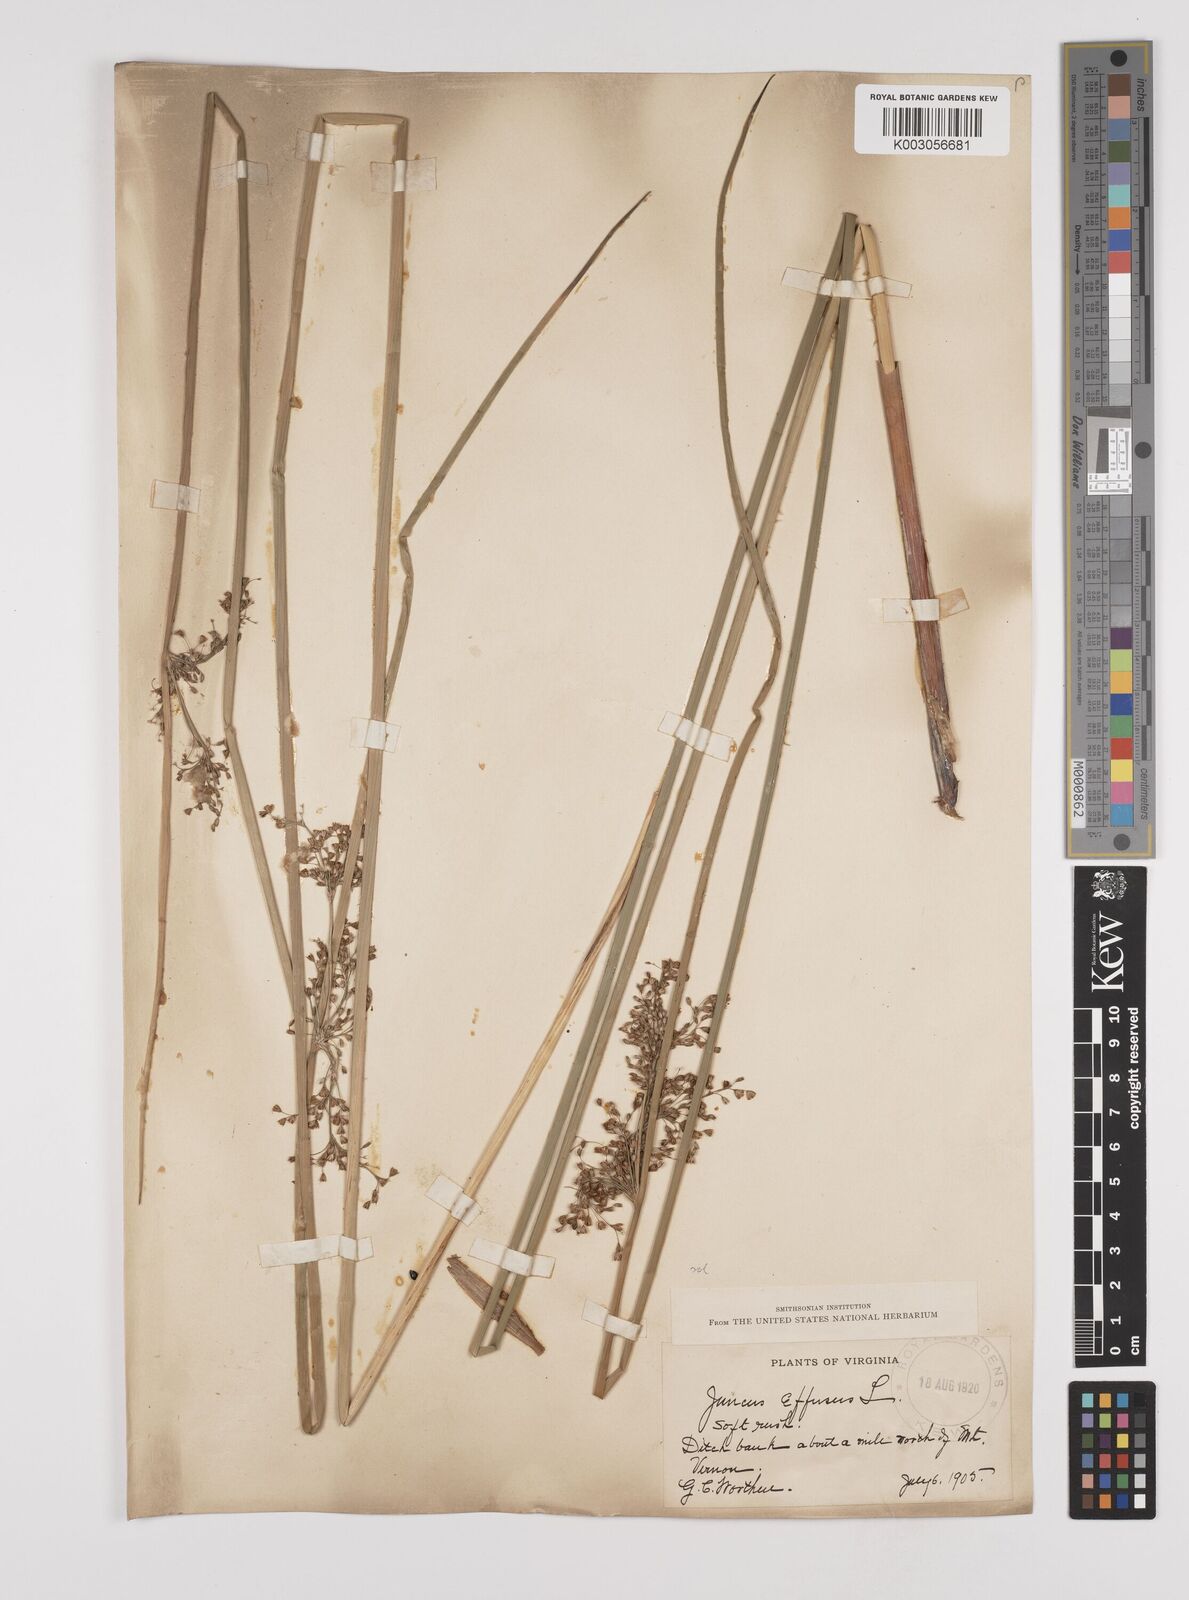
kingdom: Plantae
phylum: Tracheophyta
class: Liliopsida
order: Poales
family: Juncaceae
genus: Juncus
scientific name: Juncus effusus
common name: Soft rush
